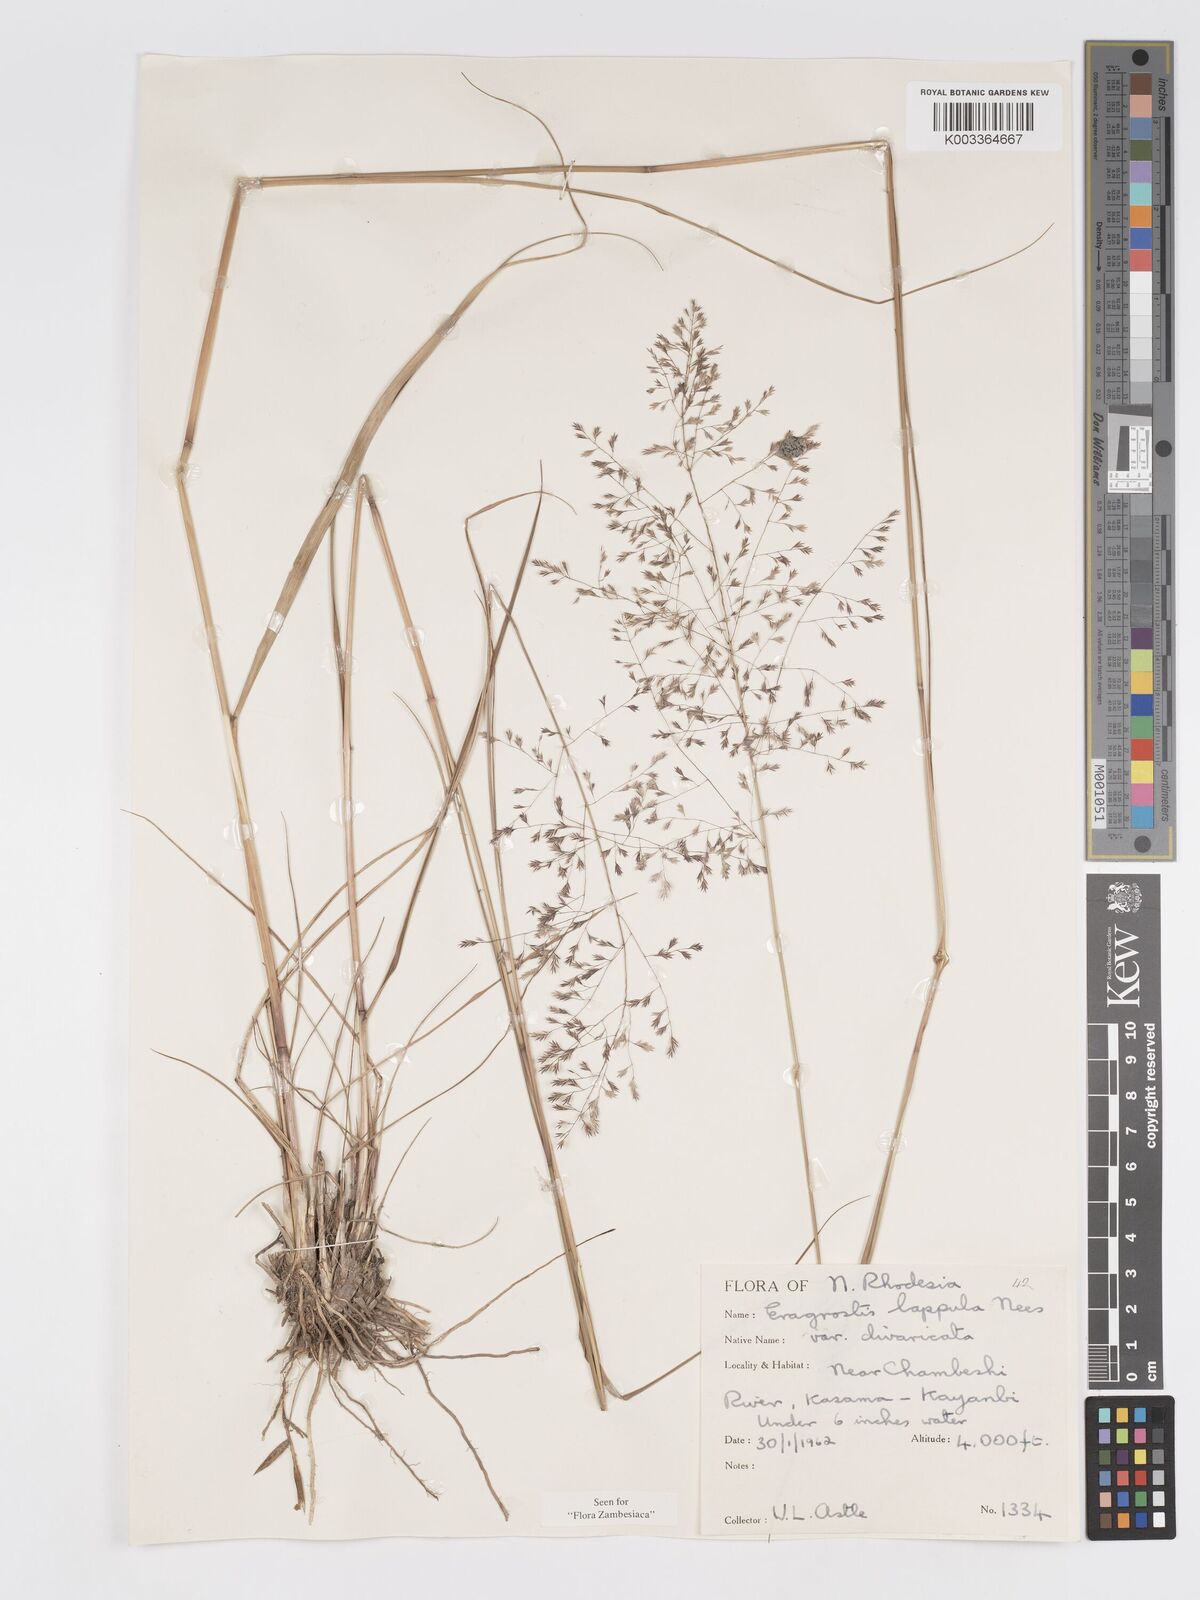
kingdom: Plantae
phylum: Tracheophyta
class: Liliopsida
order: Poales
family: Poaceae
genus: Eragrostis
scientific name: Eragrostis lappula
